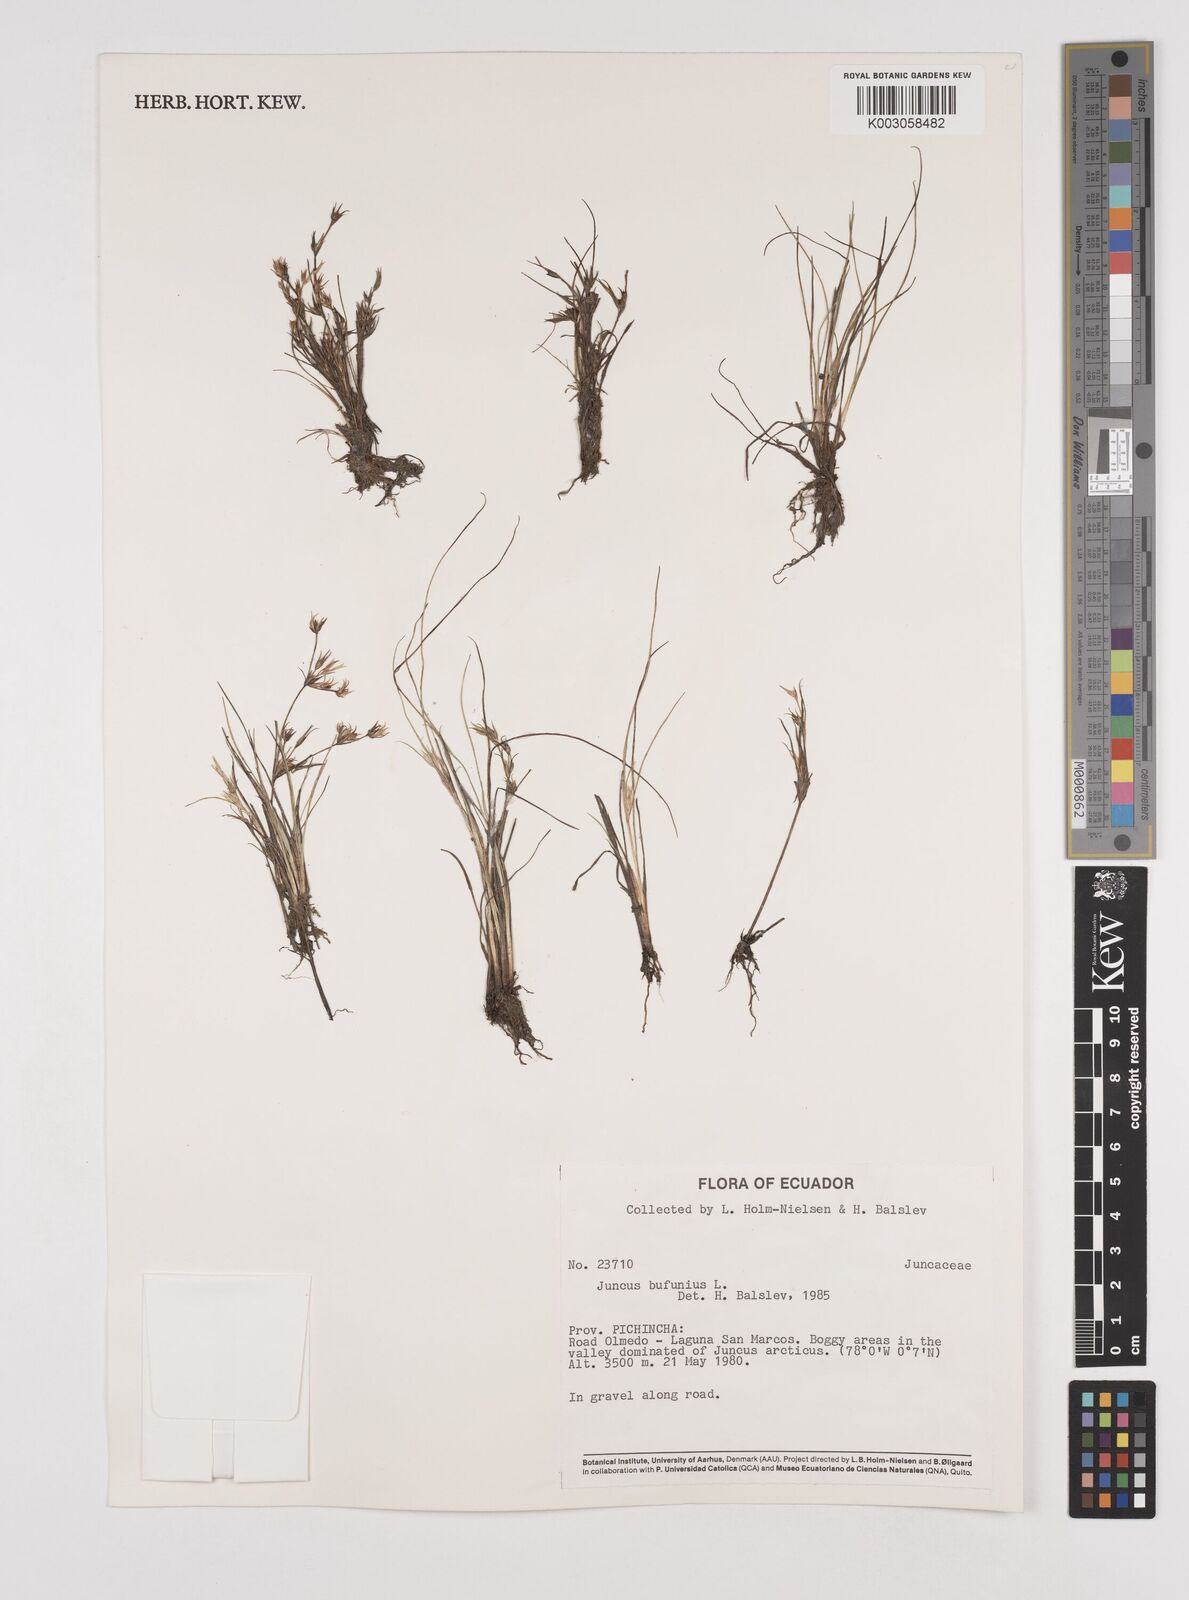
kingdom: Plantae
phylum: Tracheophyta
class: Liliopsida
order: Poales
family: Juncaceae
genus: Juncus
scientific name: Juncus bufonius
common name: Toad rush
